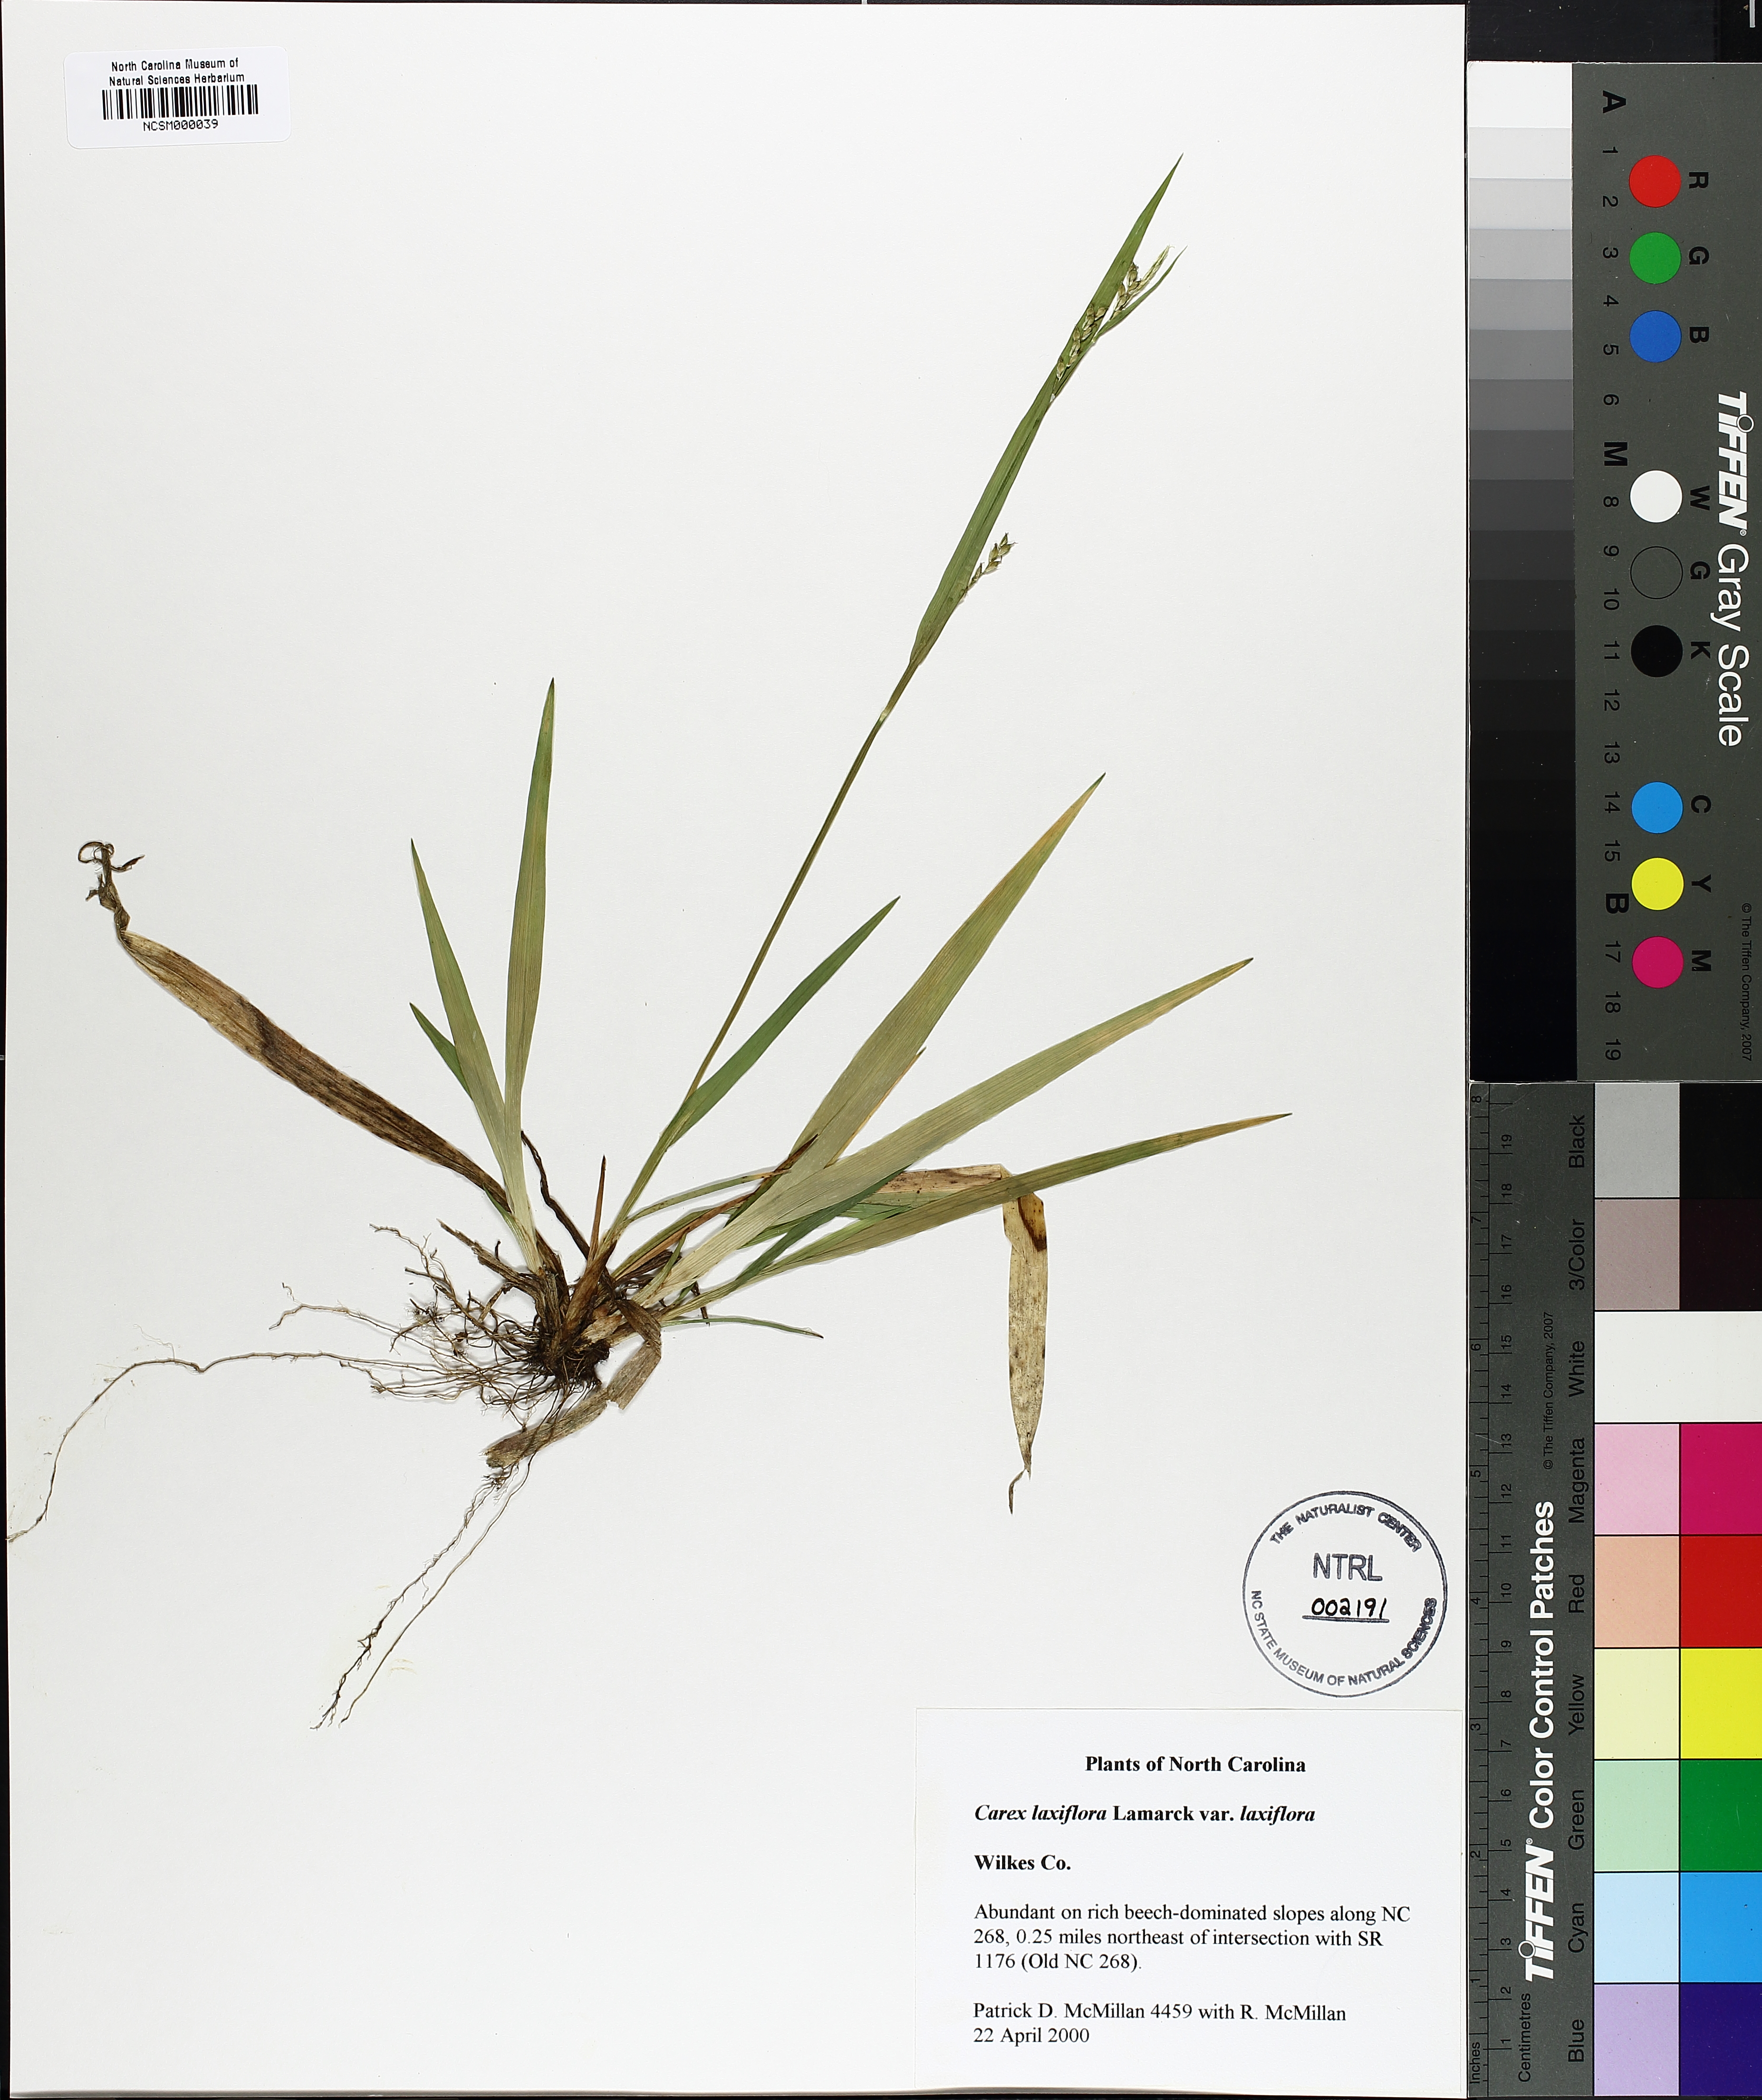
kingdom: Plantae
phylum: Tracheophyta
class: Liliopsida
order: Poales
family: Cyperaceae
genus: Carex
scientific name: Carex laxiflora
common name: Beech wood sedge
